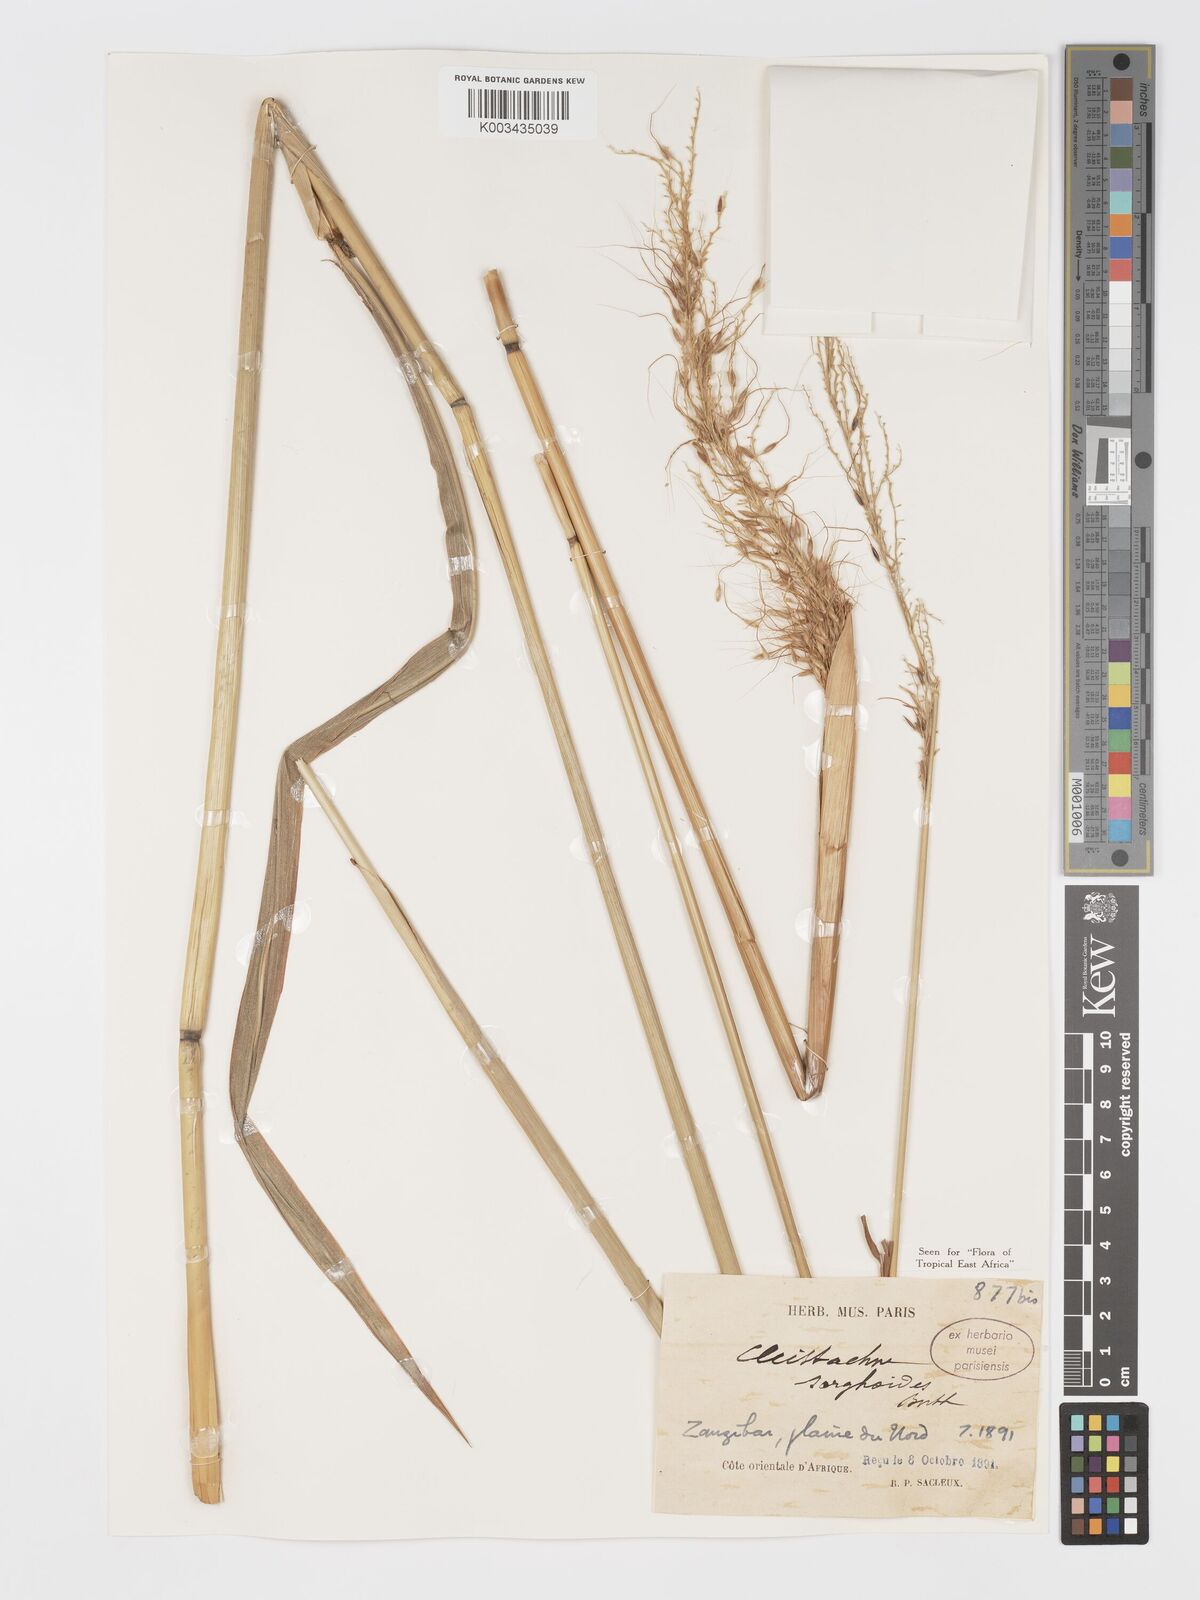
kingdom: Plantae
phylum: Tracheophyta
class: Liliopsida
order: Poales
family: Poaceae
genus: Cleistachne
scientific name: Cleistachne sorghoides
